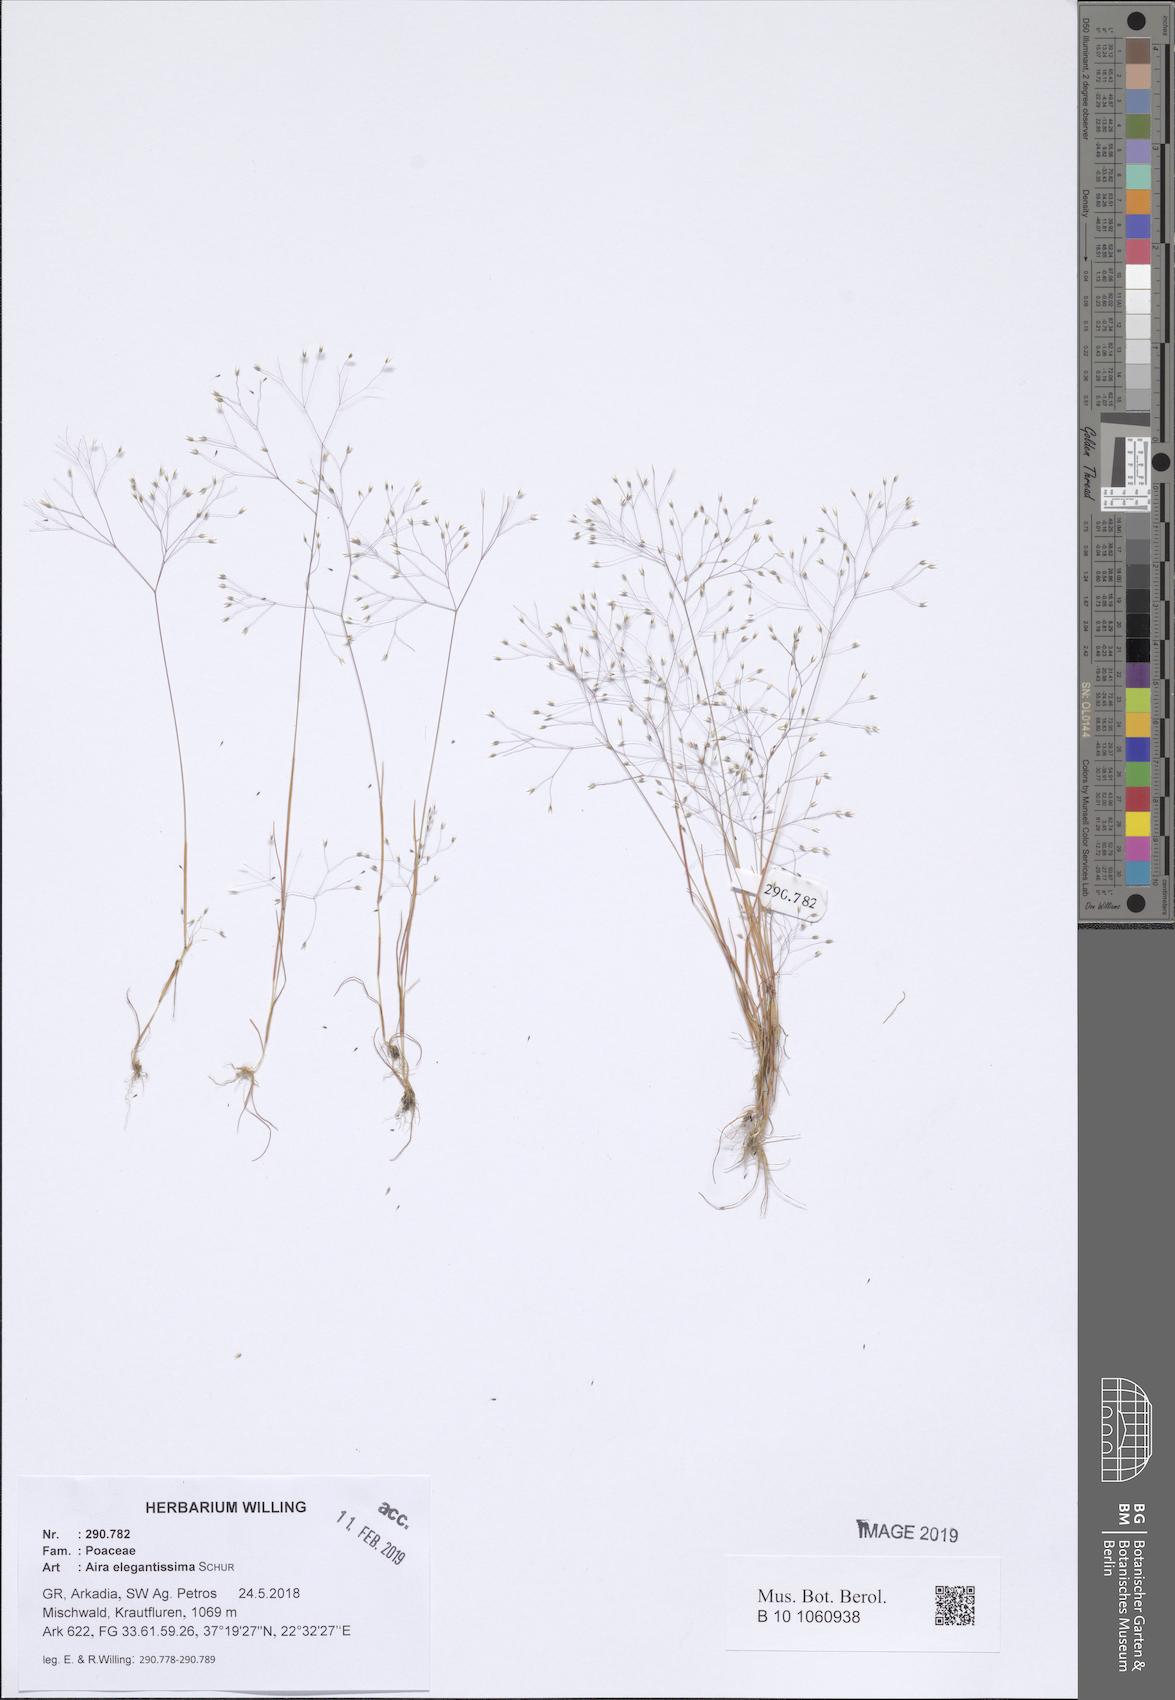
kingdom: Plantae
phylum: Tracheophyta
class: Liliopsida
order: Poales
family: Poaceae
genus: Aira
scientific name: Aira elegans
